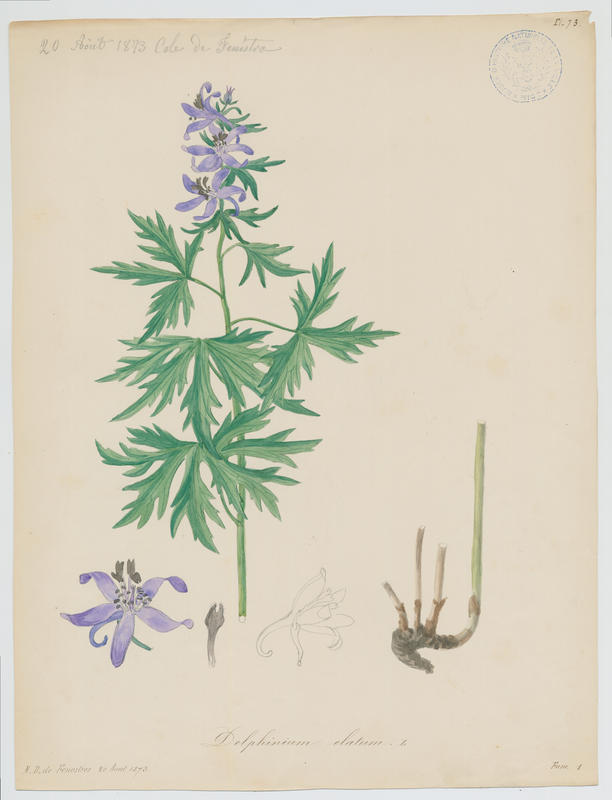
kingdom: Plantae
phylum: Tracheophyta
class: Magnoliopsida
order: Ranunculales
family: Ranunculaceae
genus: Delphinium
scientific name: Delphinium
